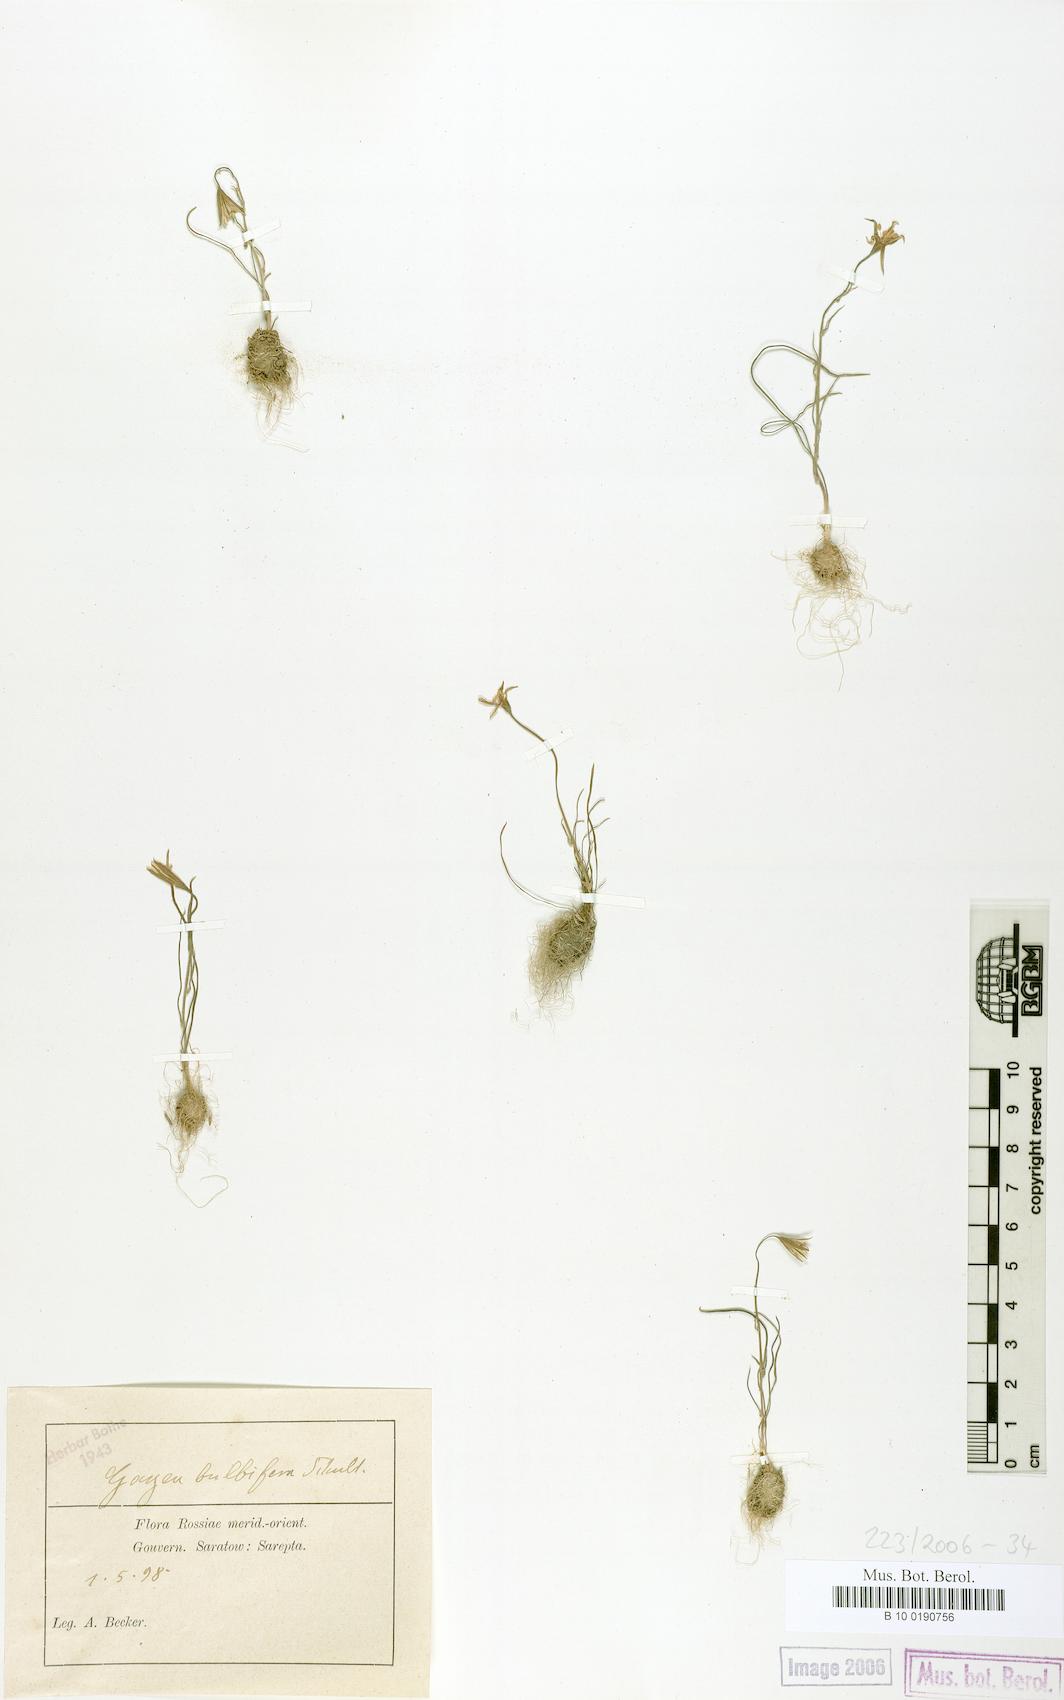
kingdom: Plantae
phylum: Tracheophyta
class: Liliopsida
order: Liliales
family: Liliaceae
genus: Gagea
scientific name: Gagea bulbifera
